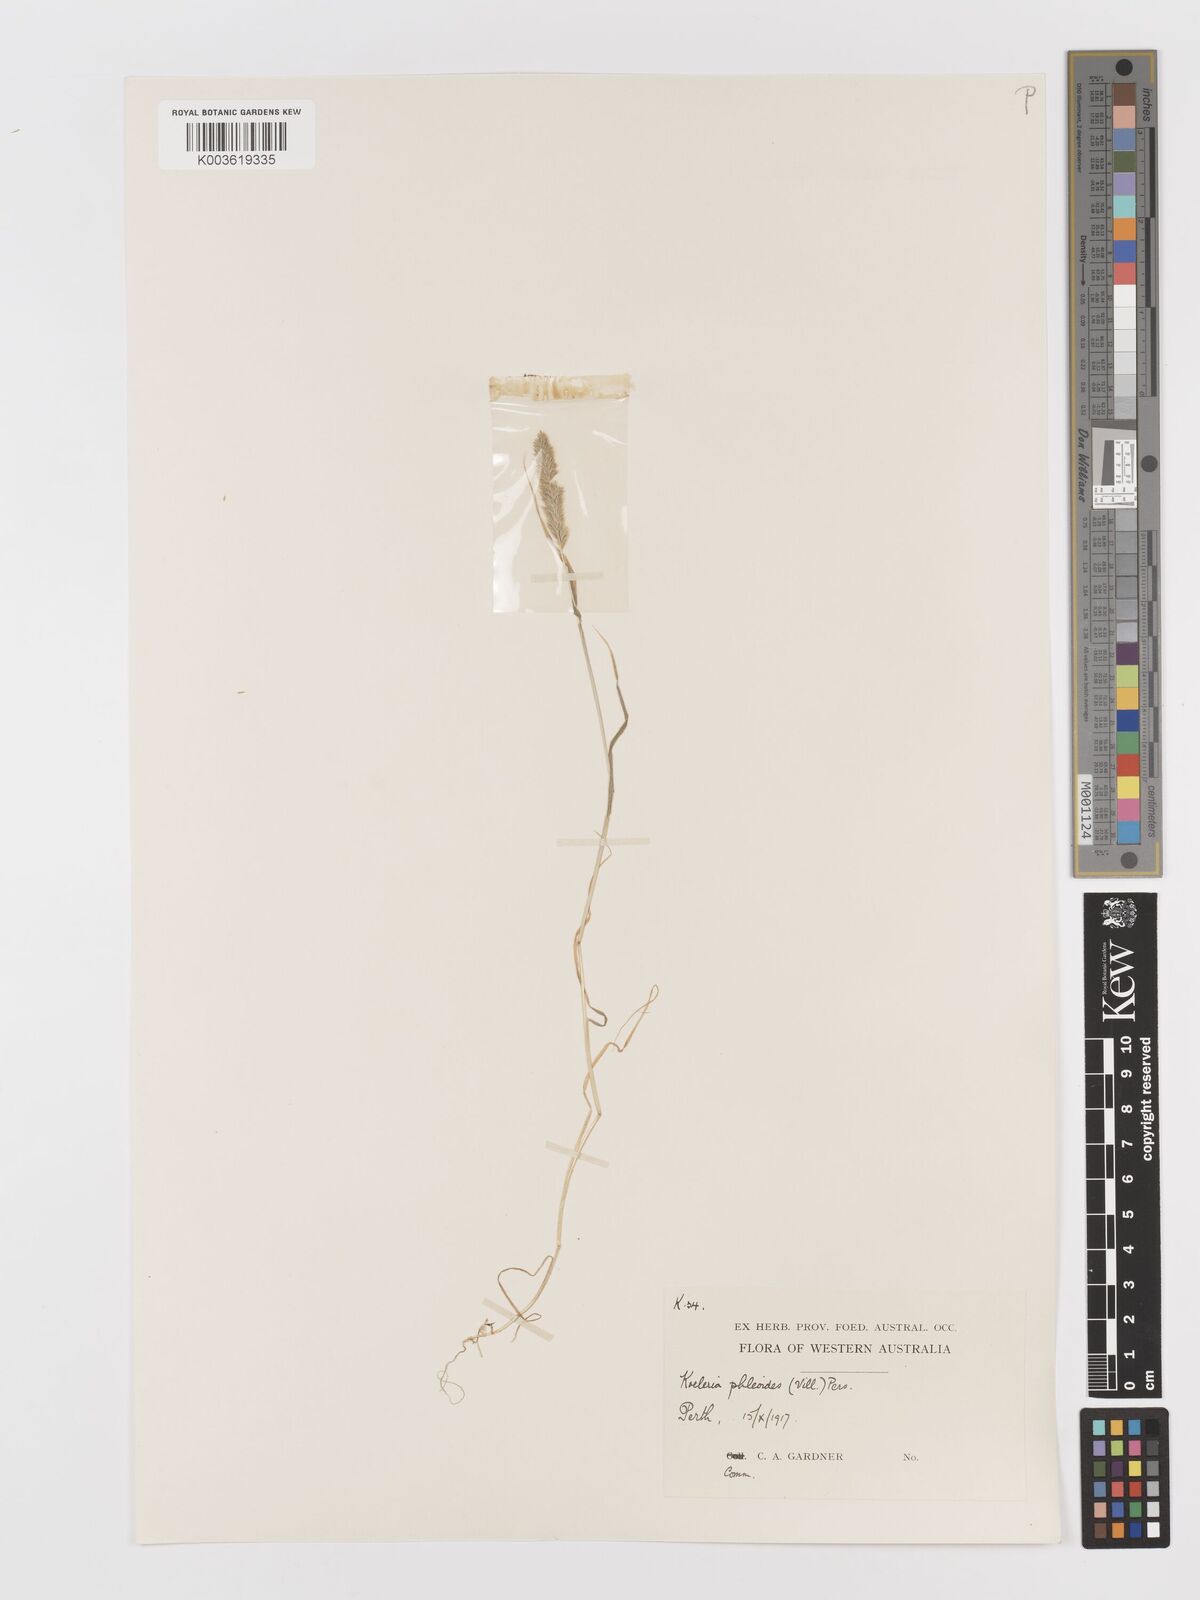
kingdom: Plantae
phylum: Tracheophyta
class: Liliopsida
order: Poales
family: Poaceae
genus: Rostraria
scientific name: Rostraria cristata
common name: Mediterranean hair-grass
